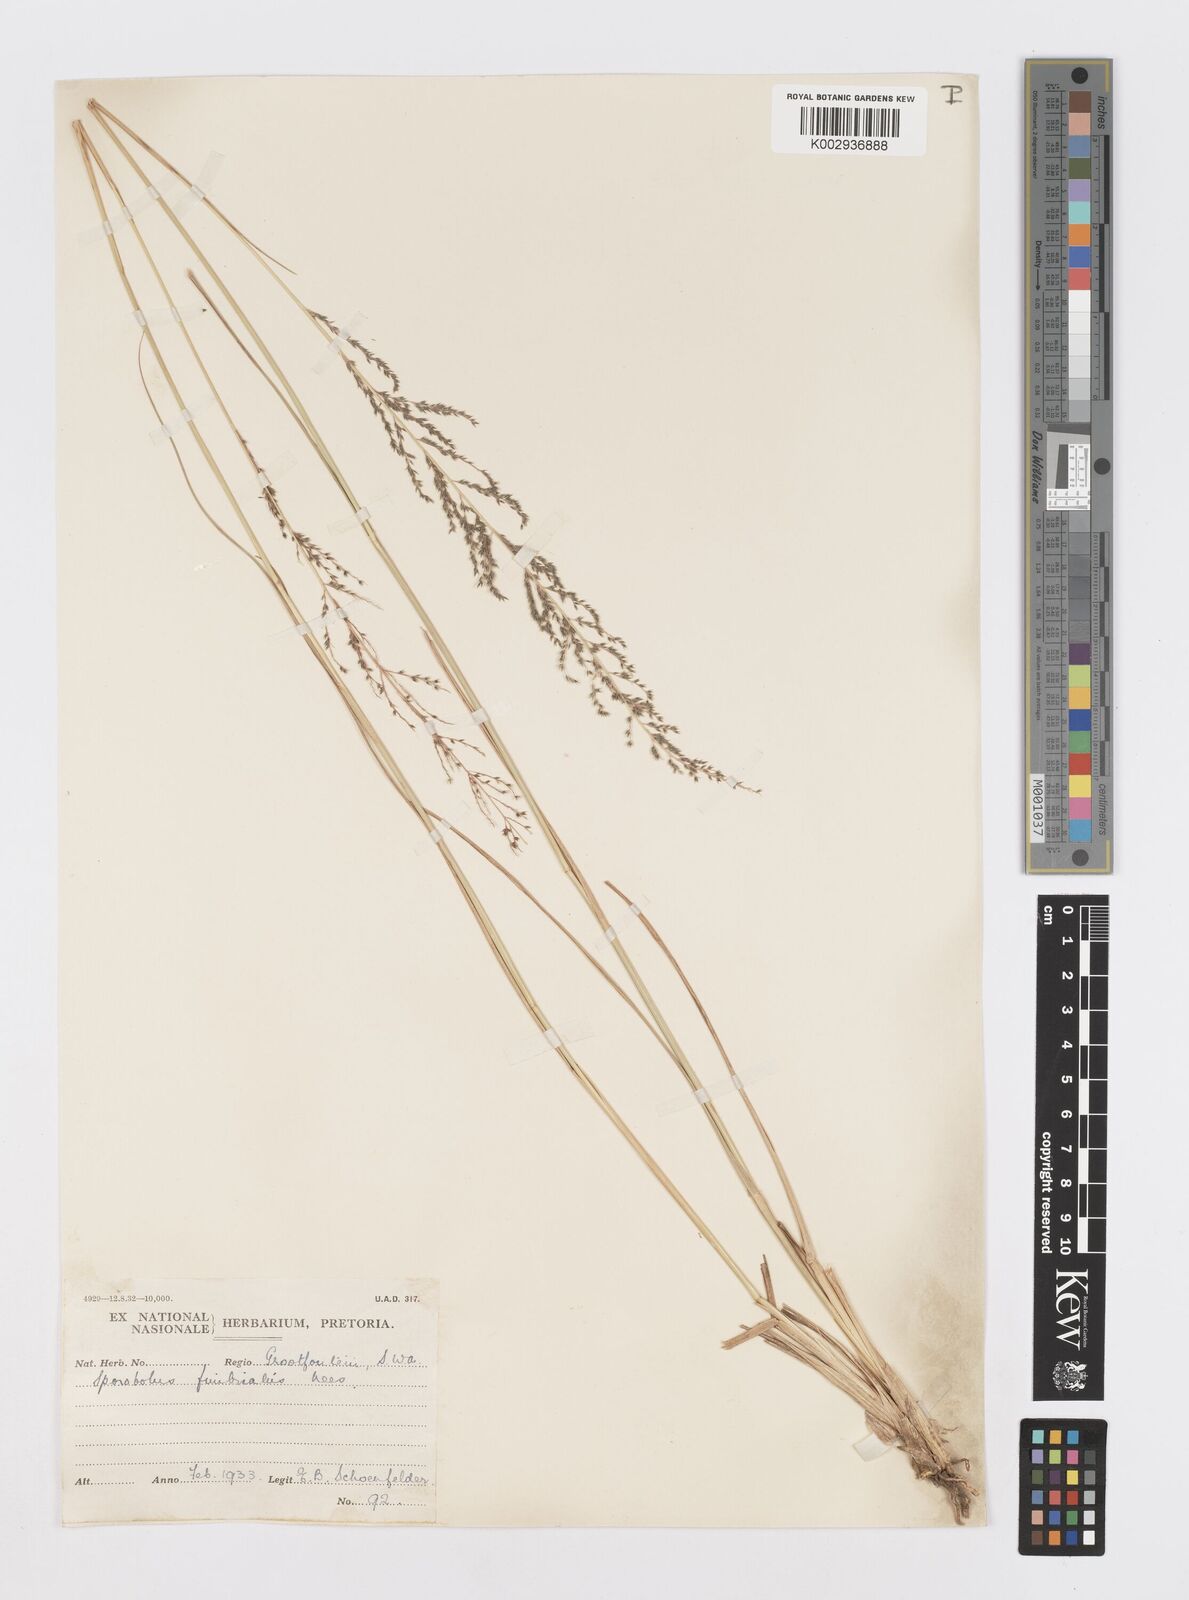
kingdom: Plantae
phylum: Tracheophyta
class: Liliopsida
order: Poales
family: Poaceae
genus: Sporobolus
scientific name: Sporobolus natalensis
